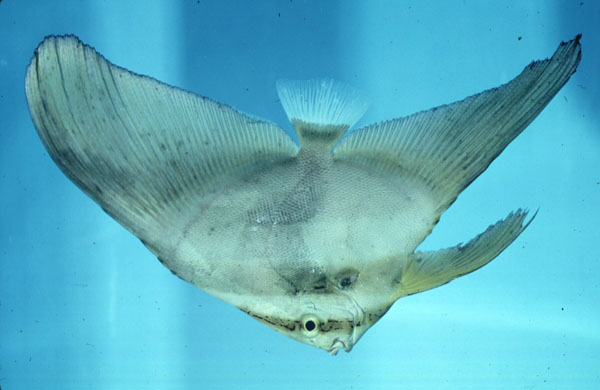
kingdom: Animalia
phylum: Chordata
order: Perciformes
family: Ephippidae
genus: Platax
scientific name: Platax orbicularis
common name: Batfish
